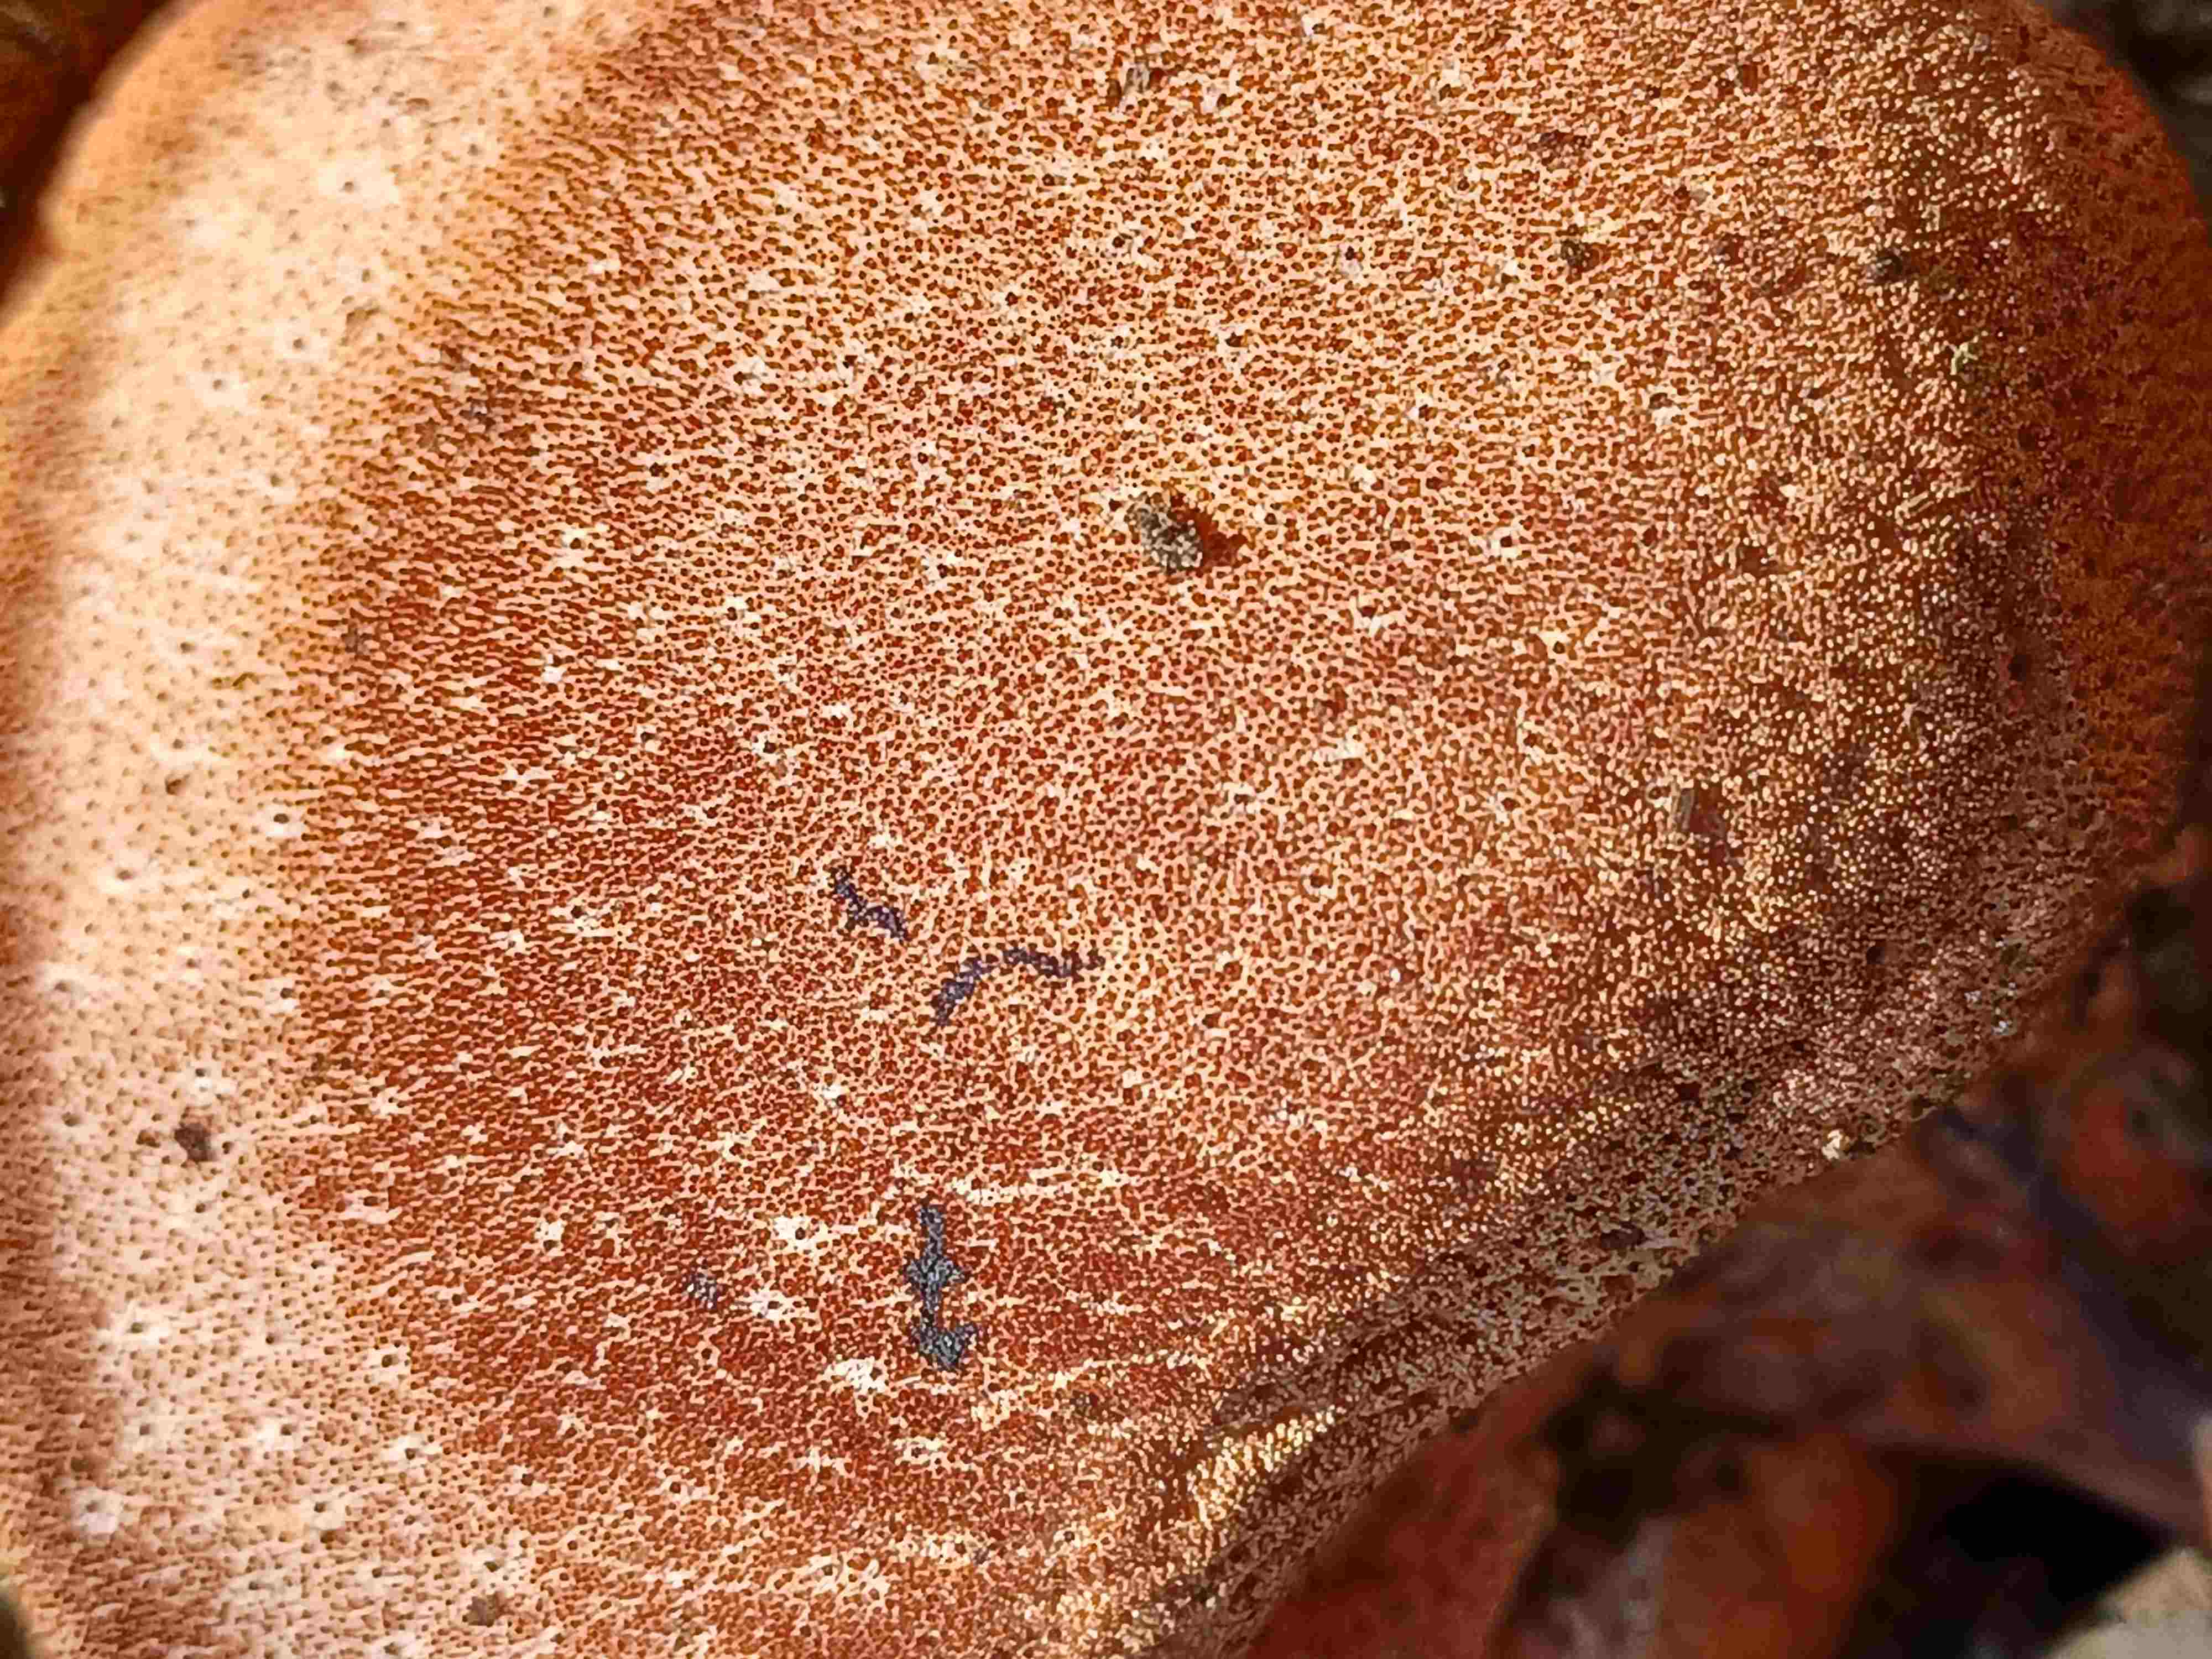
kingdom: Fungi
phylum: Basidiomycota
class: Agaricomycetes
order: Agaricales
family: Fistulinaceae
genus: Fistulina
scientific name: Fistulina hepatica
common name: oksetunge
